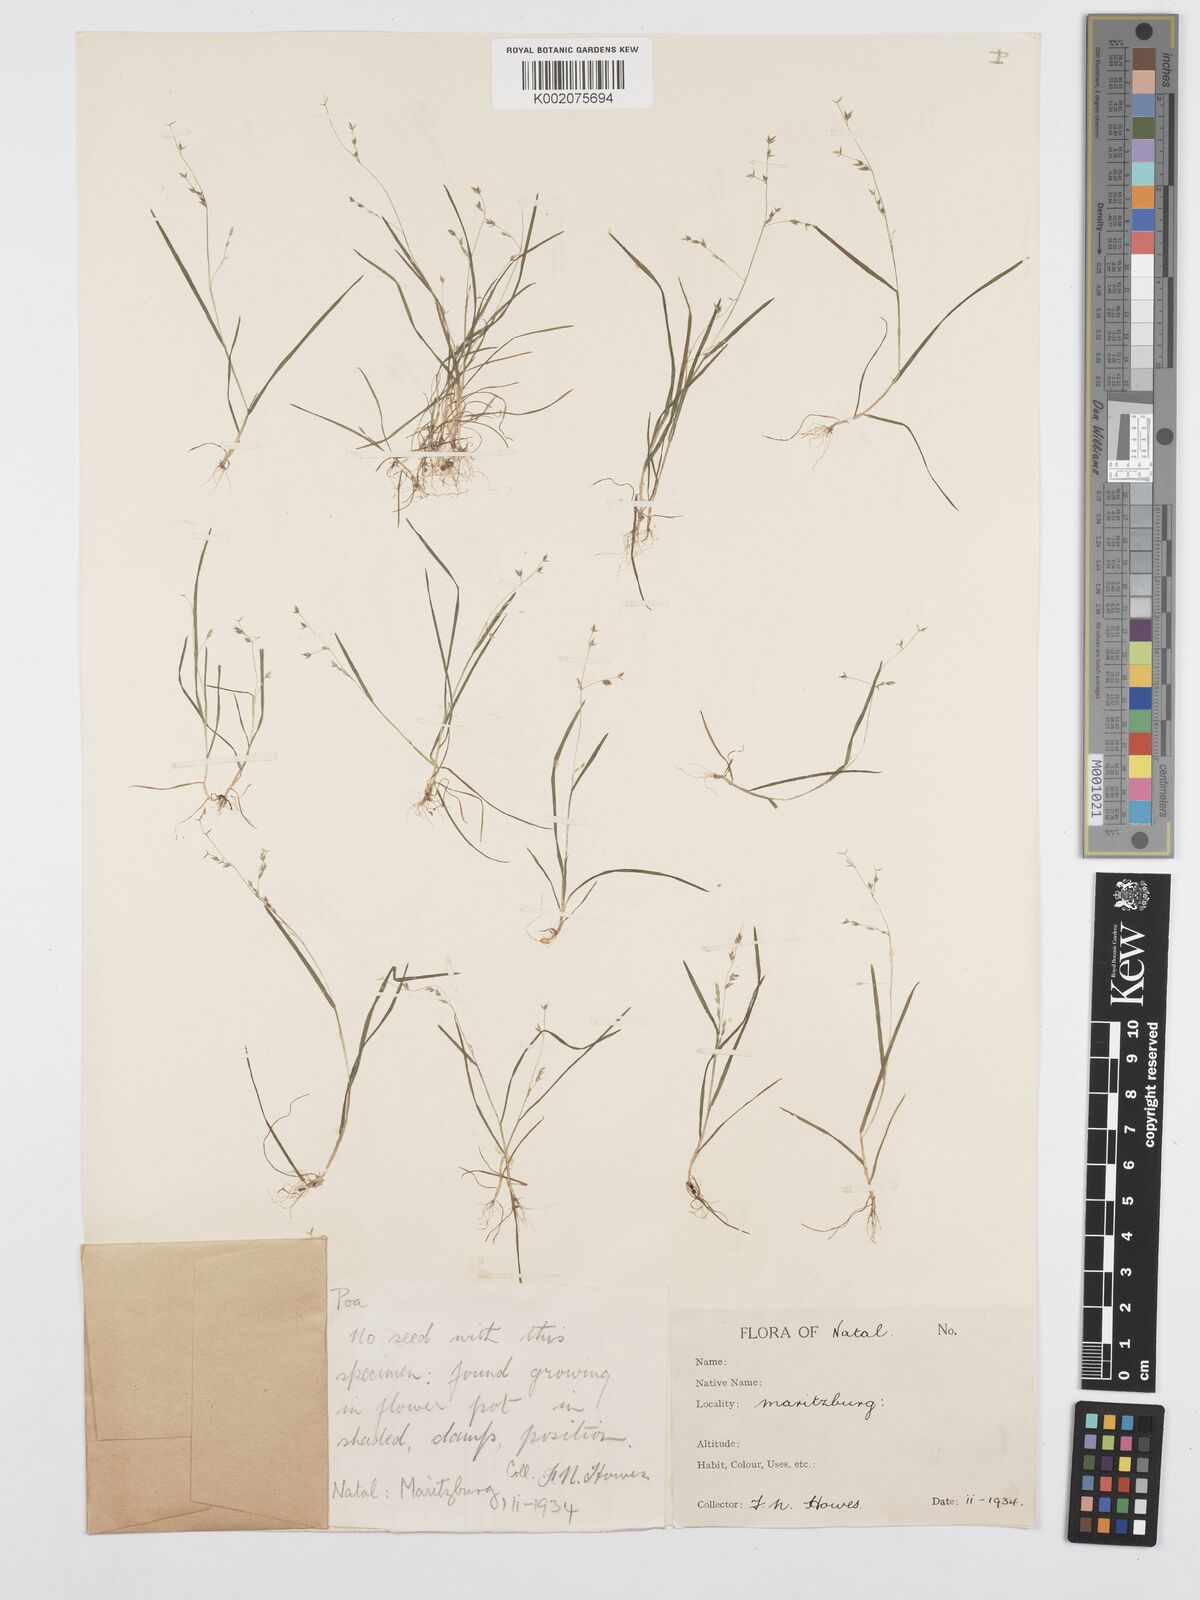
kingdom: Plantae
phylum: Tracheophyta
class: Liliopsida
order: Poales
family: Poaceae
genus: Poa
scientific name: Poa annua
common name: Annual bluegrass
